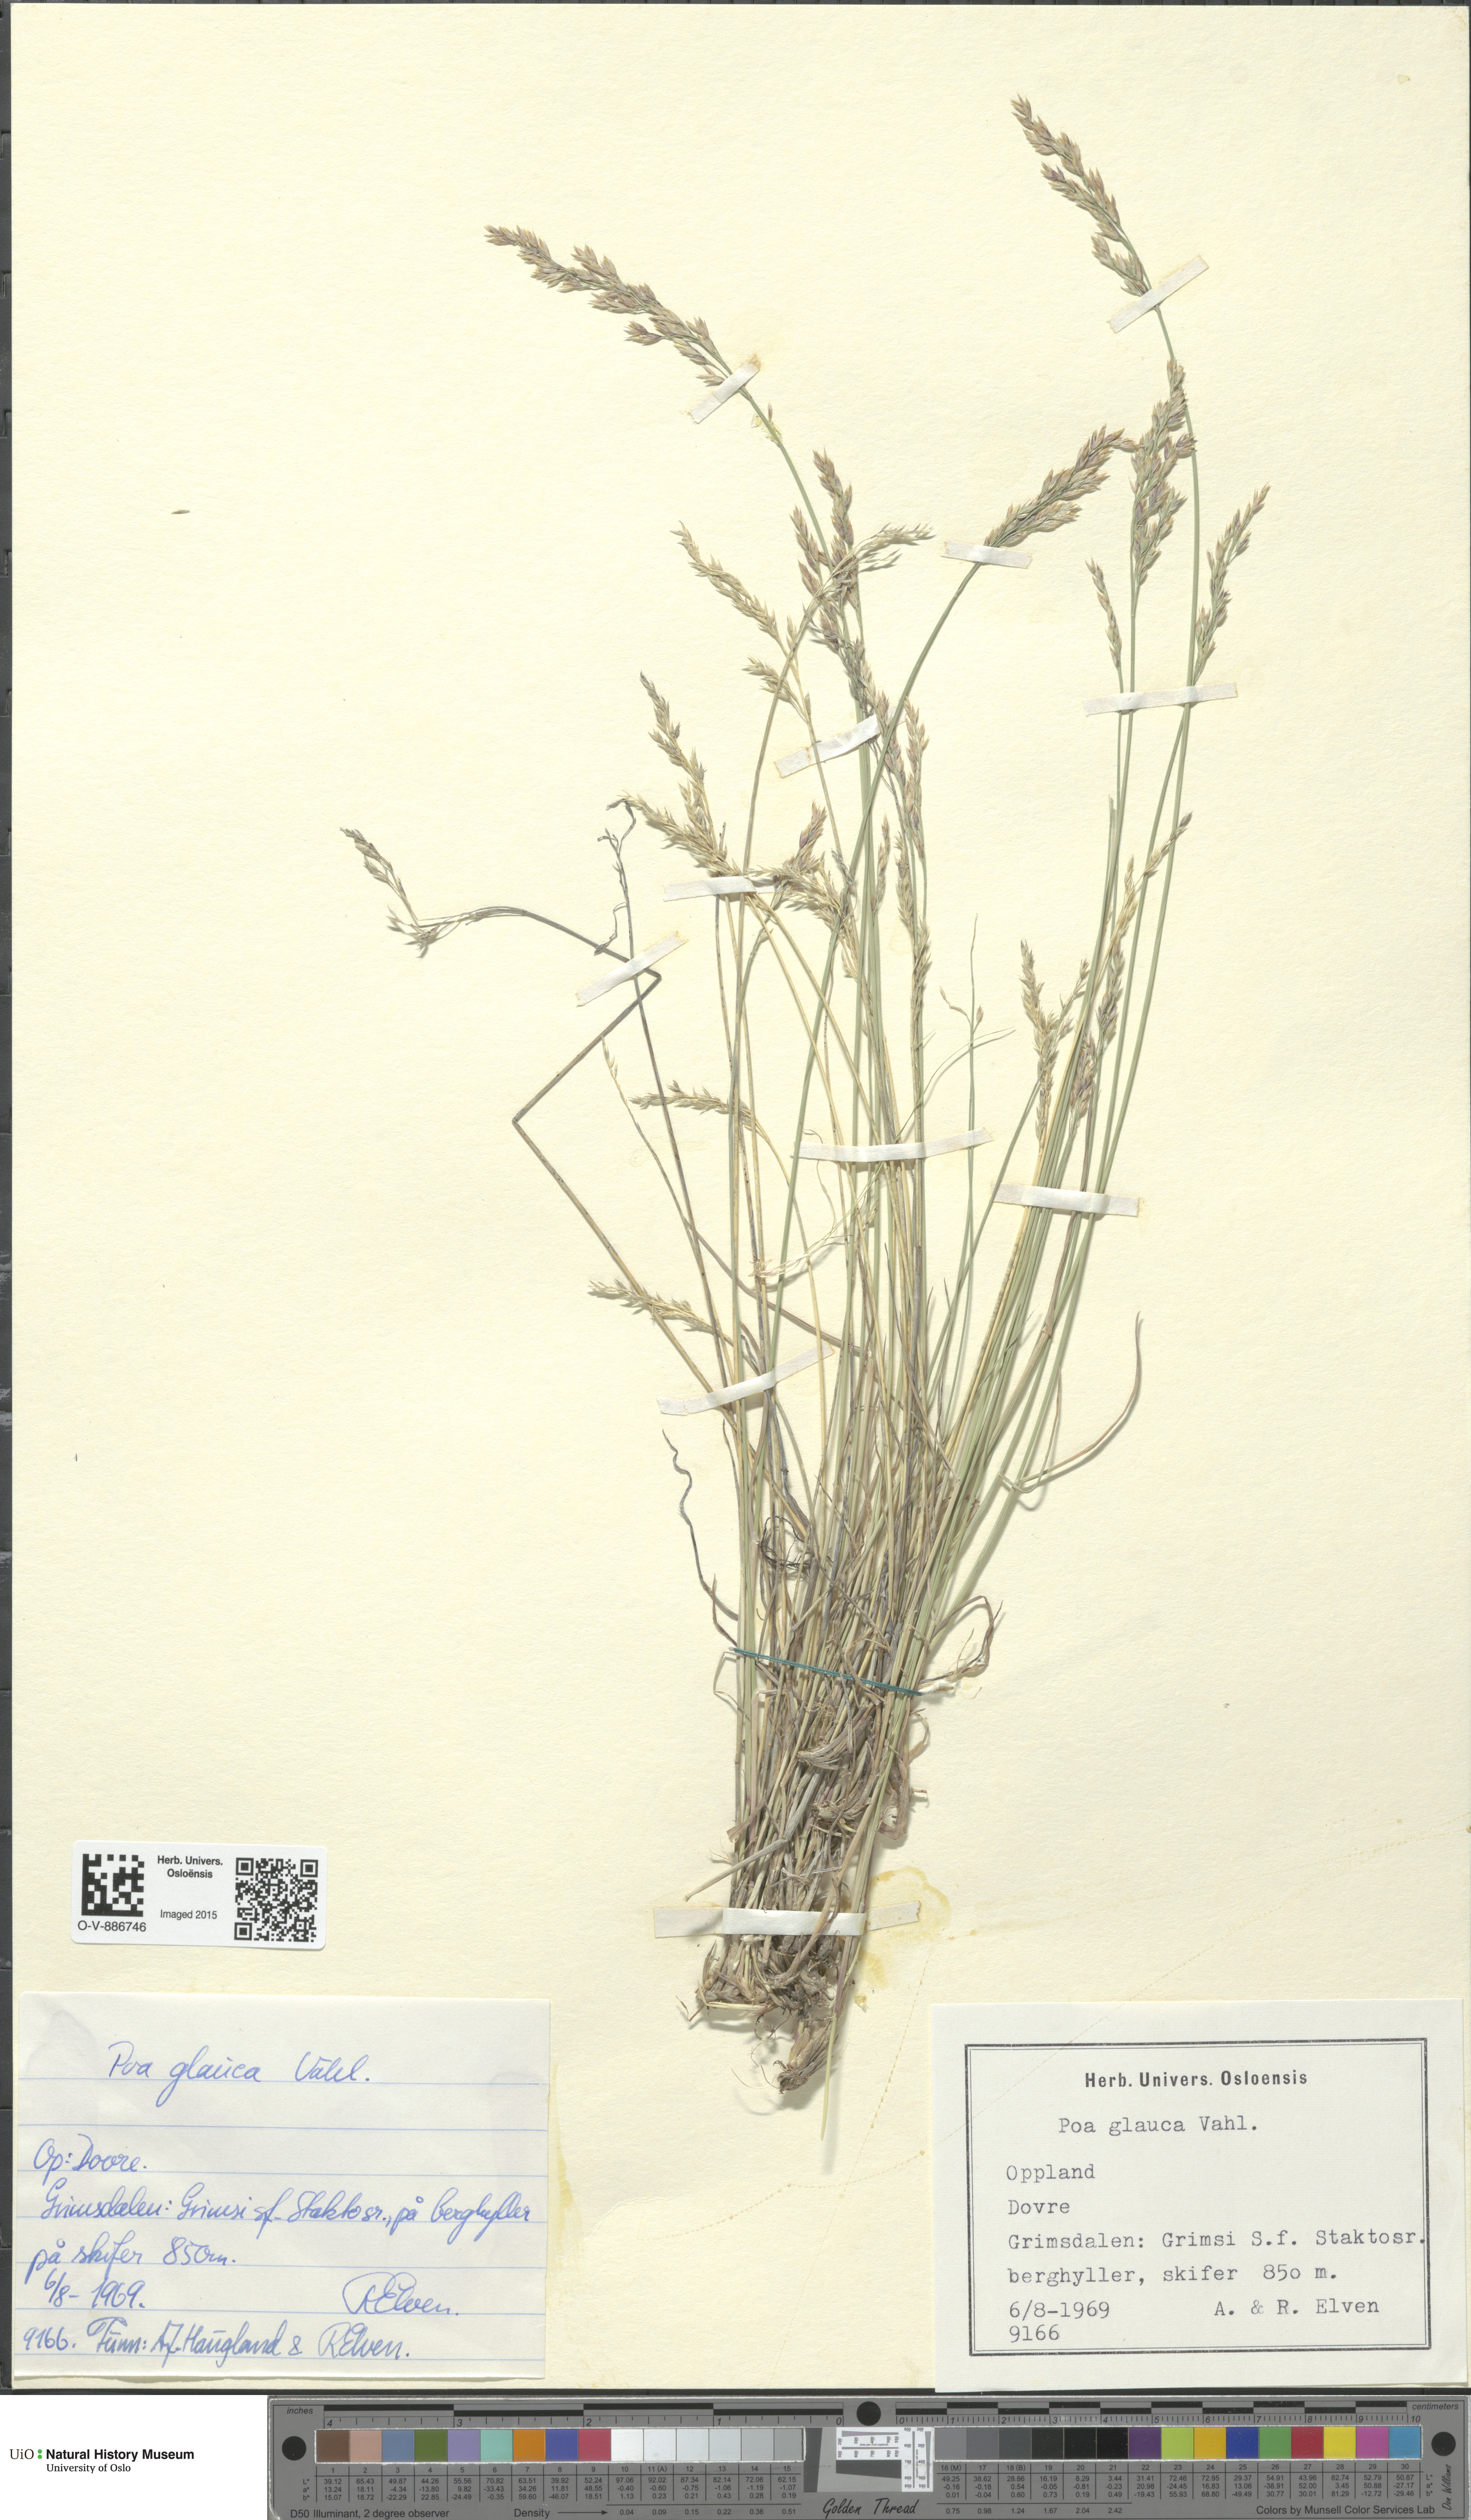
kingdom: Plantae
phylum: Tracheophyta
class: Liliopsida
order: Poales
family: Poaceae
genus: Poa
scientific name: Poa glauca
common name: Glaucous bluegrass
